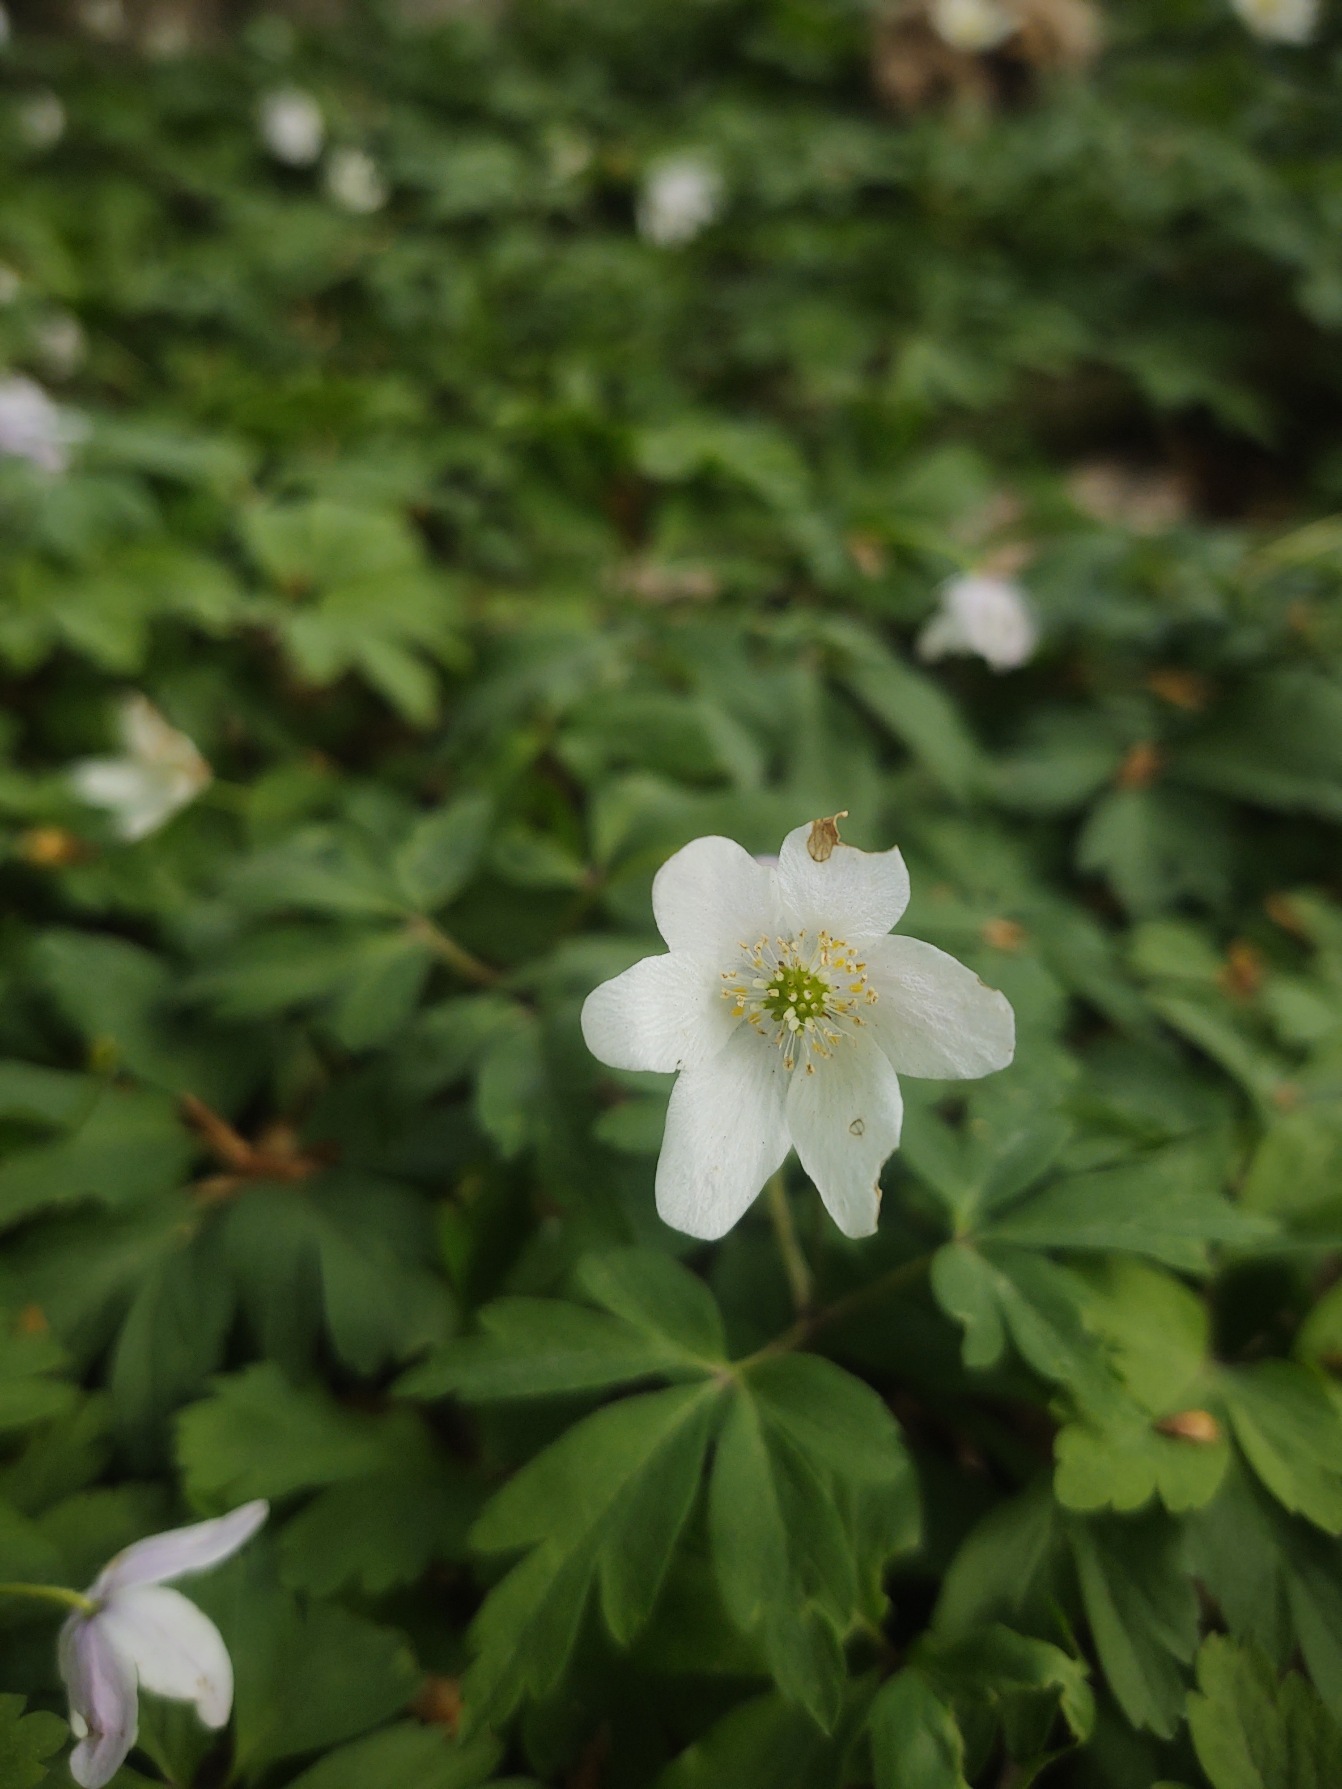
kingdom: Plantae
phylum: Tracheophyta
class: Magnoliopsida
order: Ranunculales
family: Ranunculaceae
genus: Anemone
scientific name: Anemone nemorosa
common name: Hvid anemone
